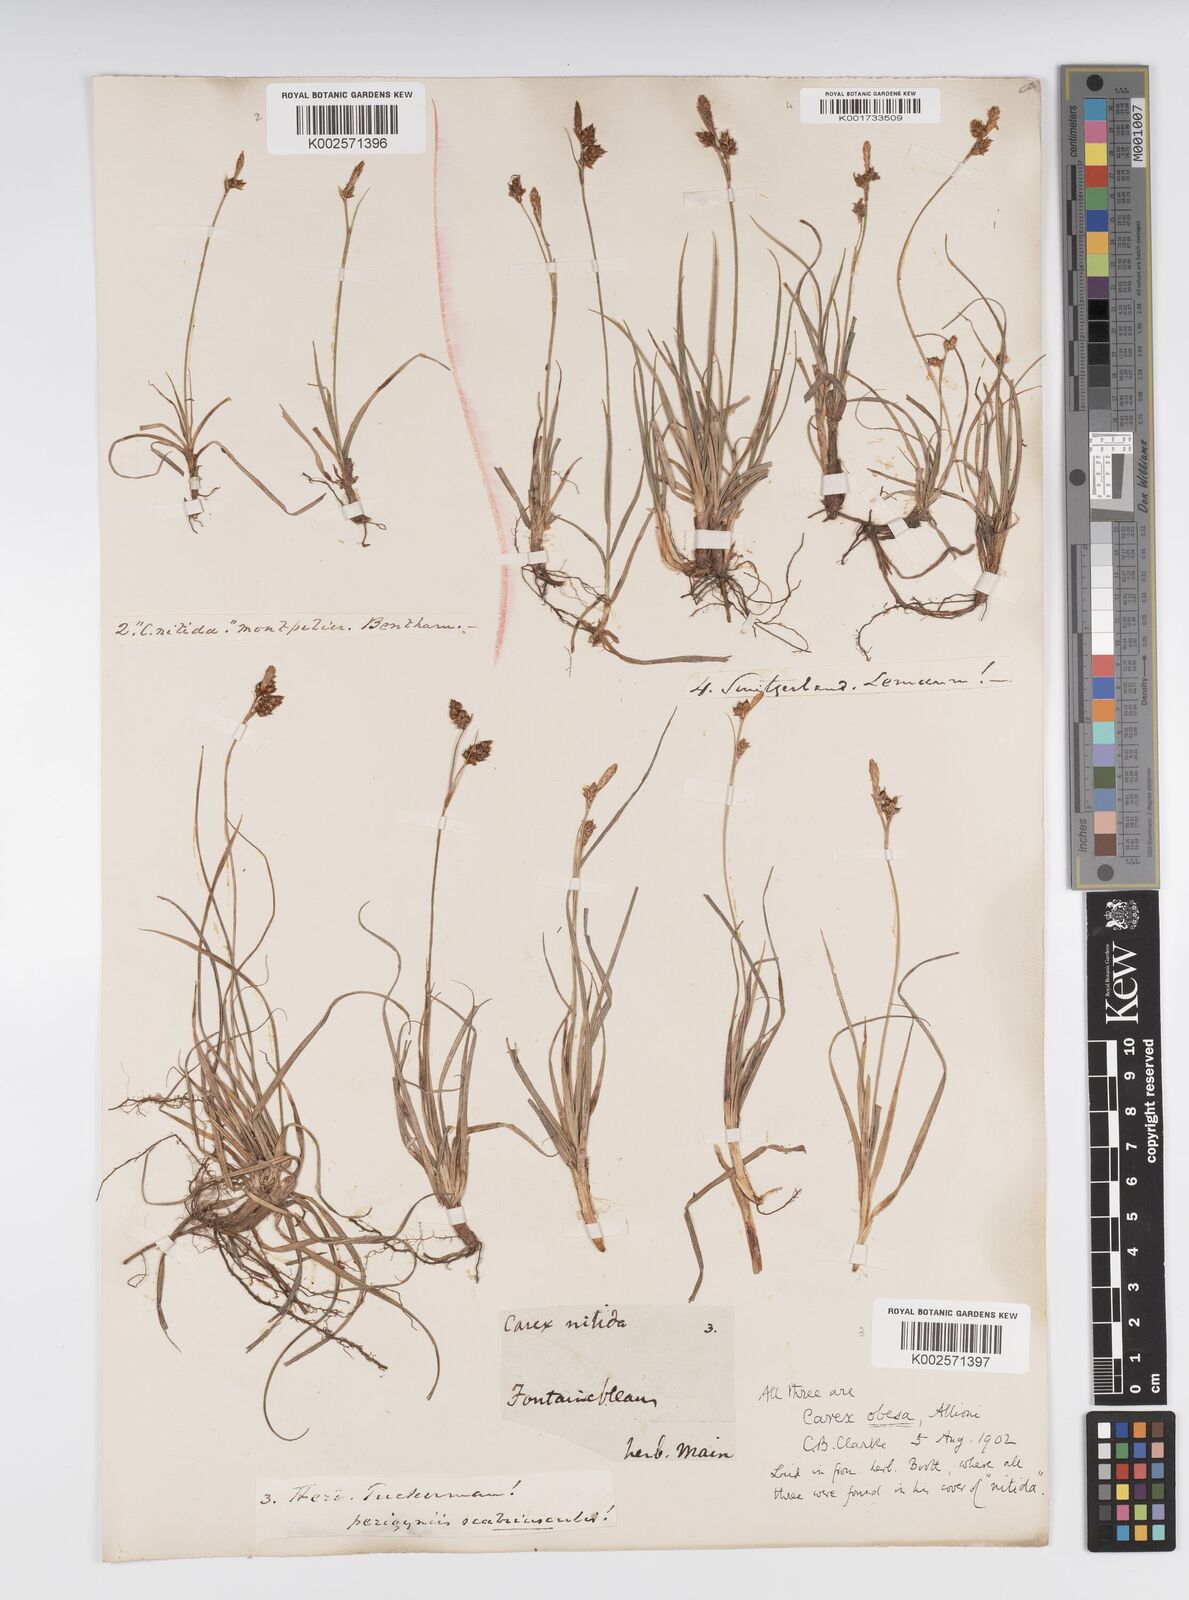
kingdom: Plantae
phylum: Tracheophyta
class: Liliopsida
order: Poales
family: Cyperaceae
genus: Carex
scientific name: Carex liparocarpos
